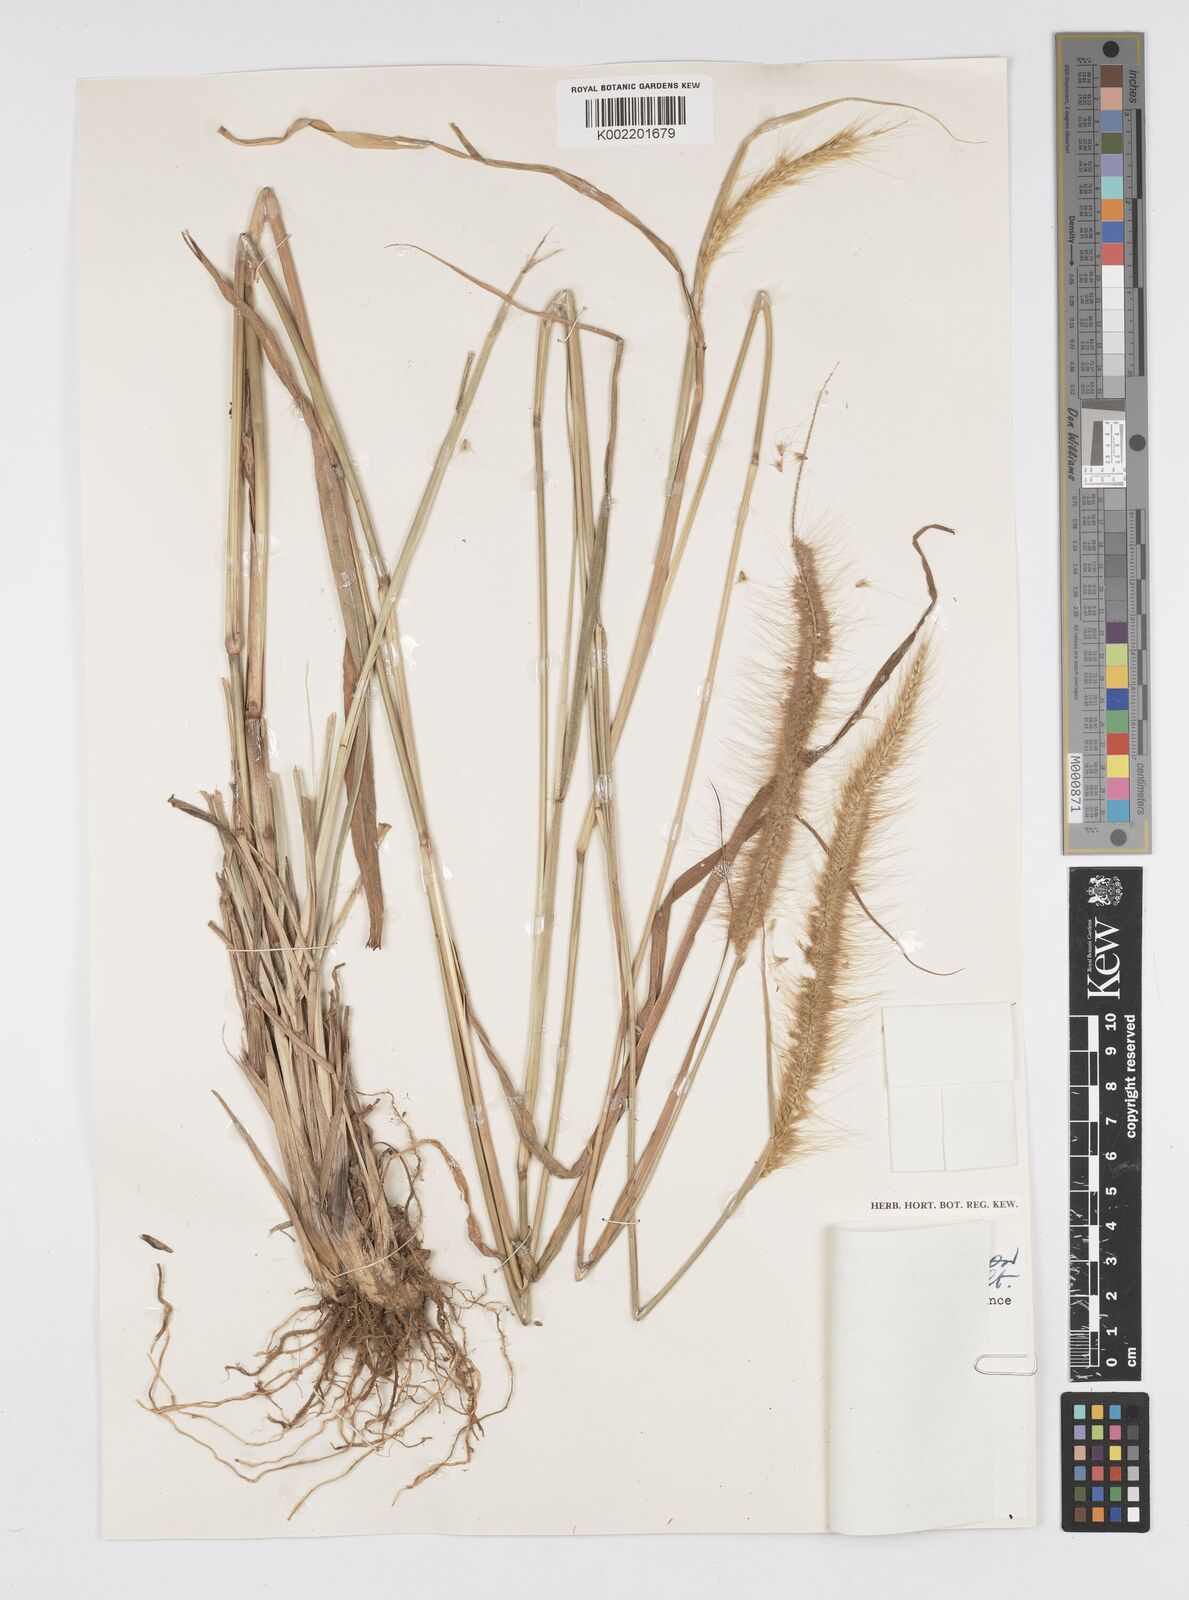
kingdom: Plantae
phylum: Tracheophyta
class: Liliopsida
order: Poales
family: Poaceae
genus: Setaria
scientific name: Setaria parviflora
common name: Knotroot bristle-grass
